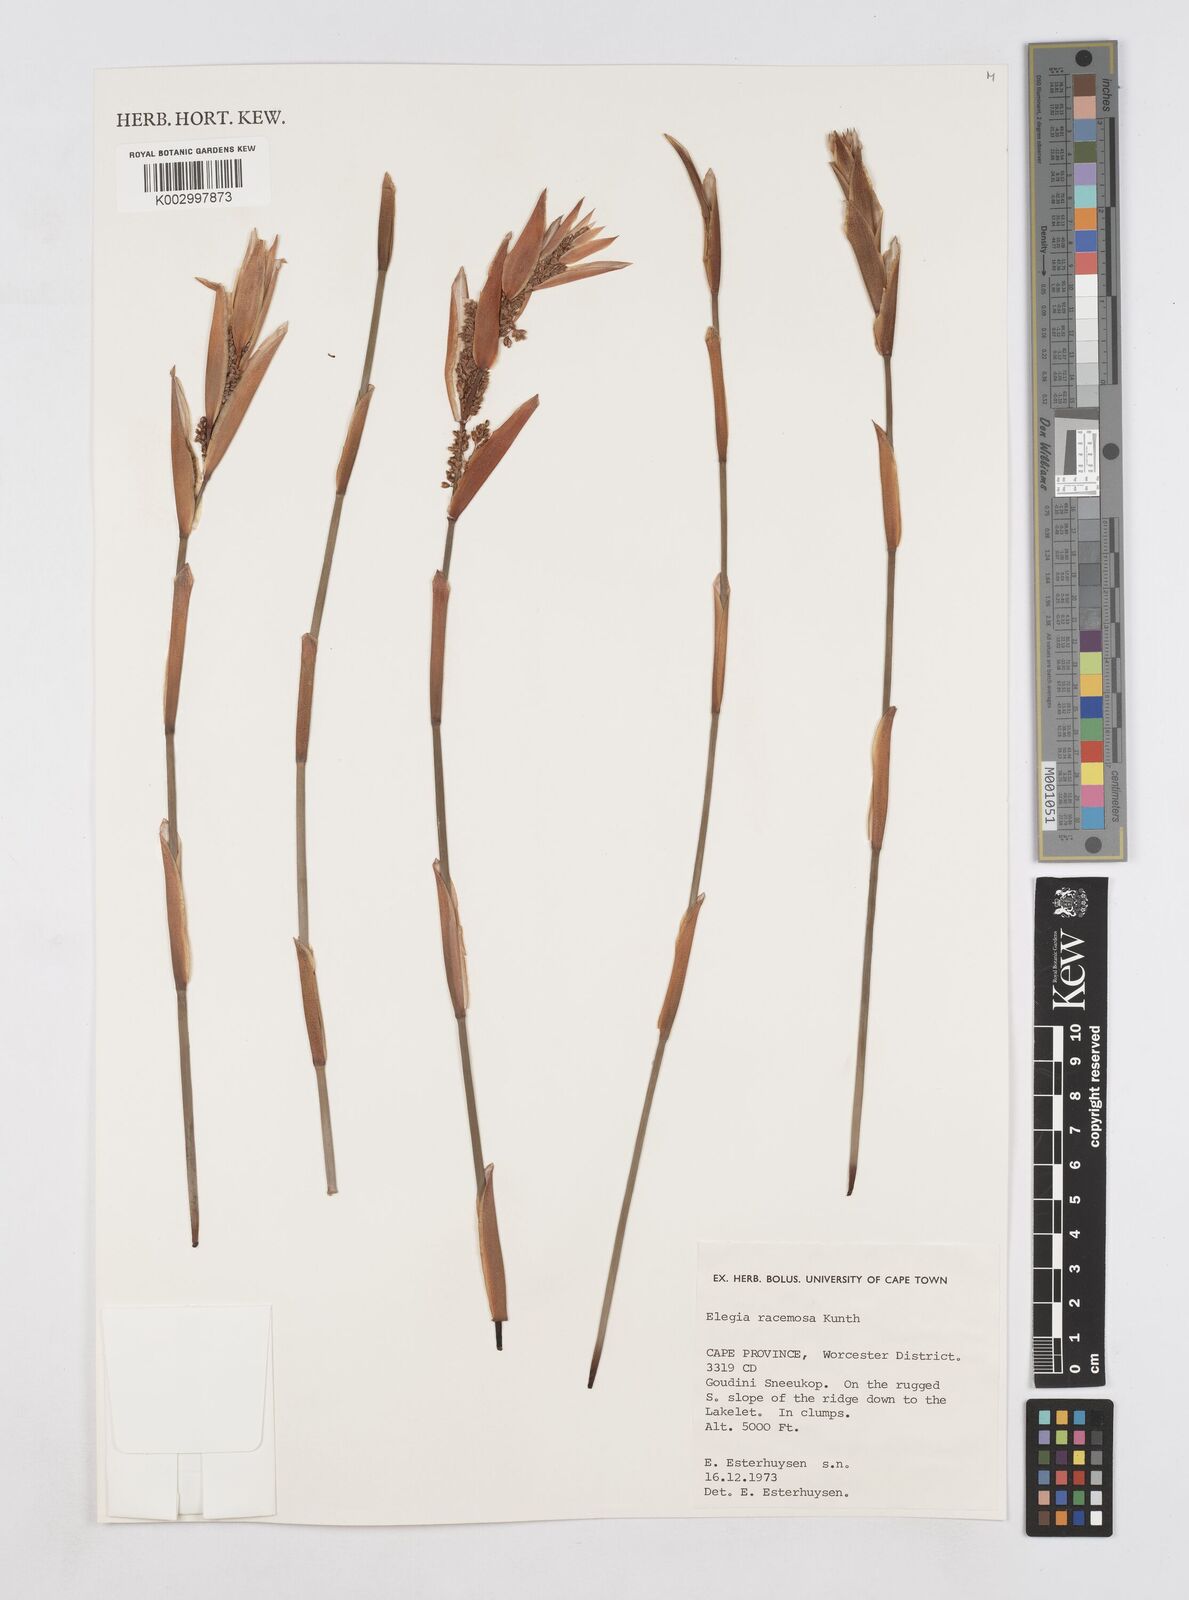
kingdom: Plantae
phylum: Tracheophyta
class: Liliopsida
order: Poales
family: Restionaceae
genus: Elegia
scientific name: Elegia racemosa
